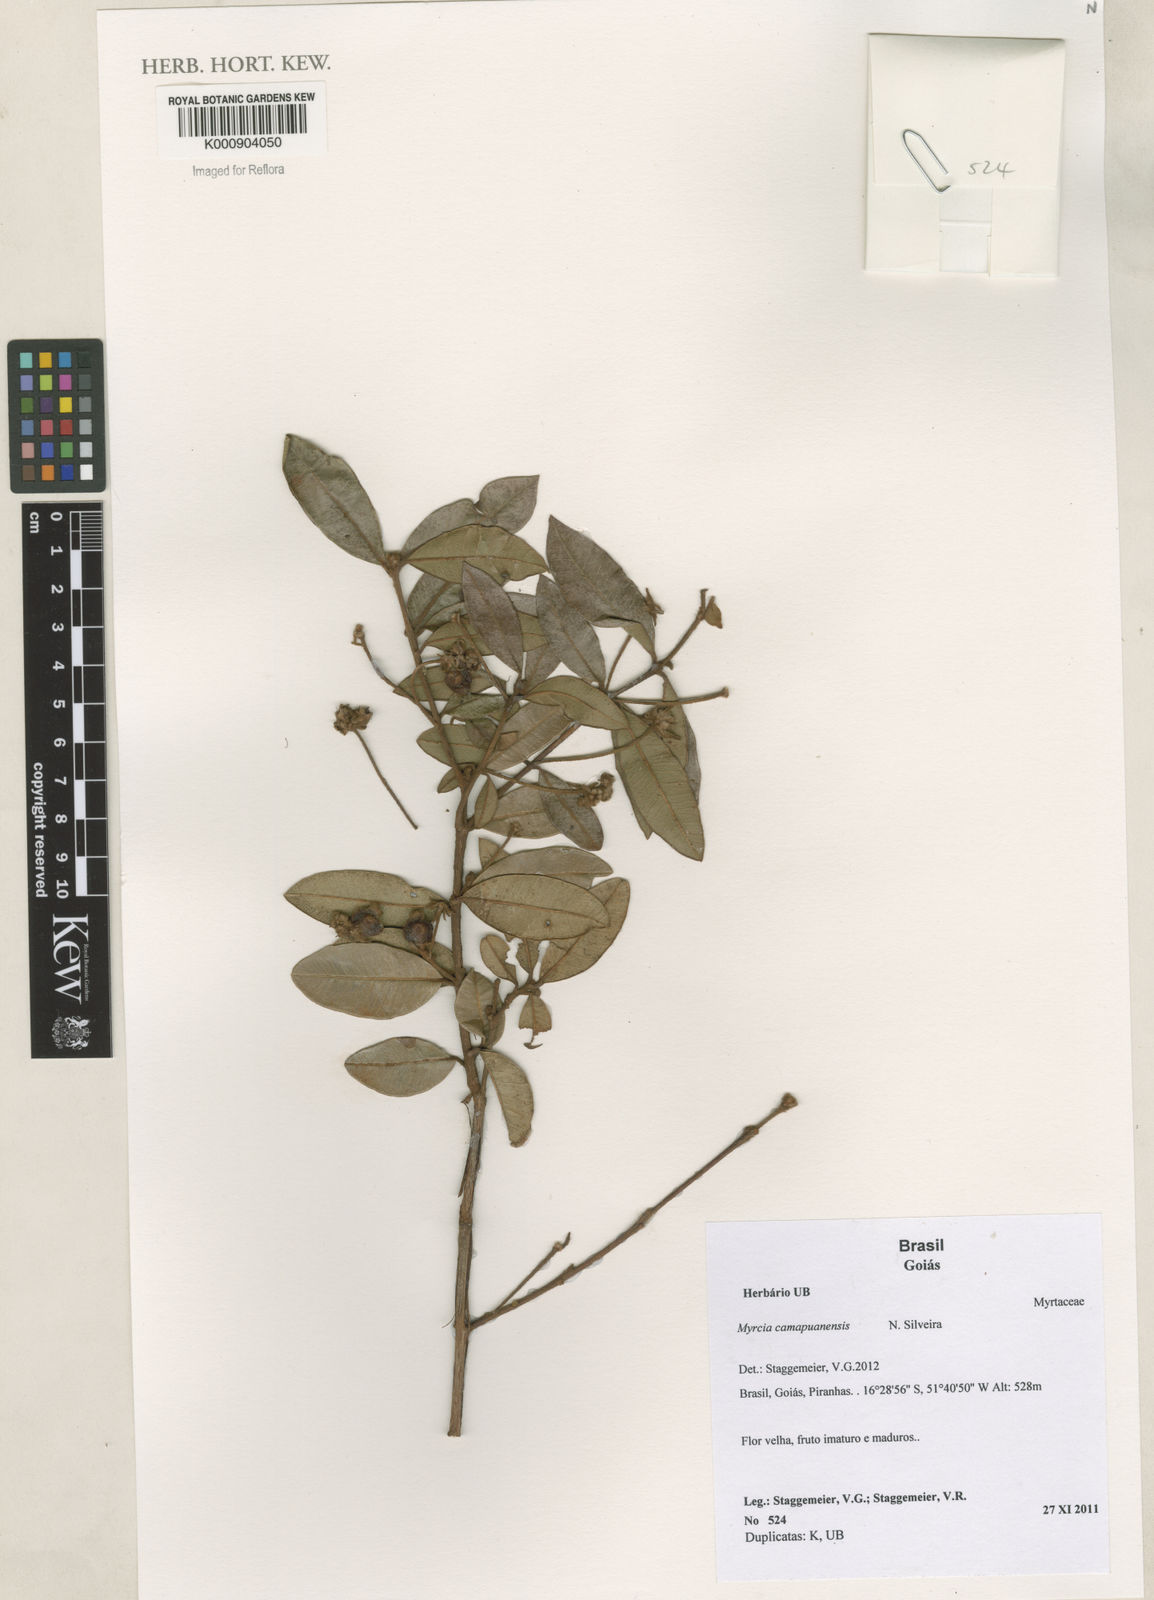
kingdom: Plantae
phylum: Tracheophyta
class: Magnoliopsida
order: Myrtales
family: Myrtaceae
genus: Myrcia
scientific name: Myrcia camapuanensis
